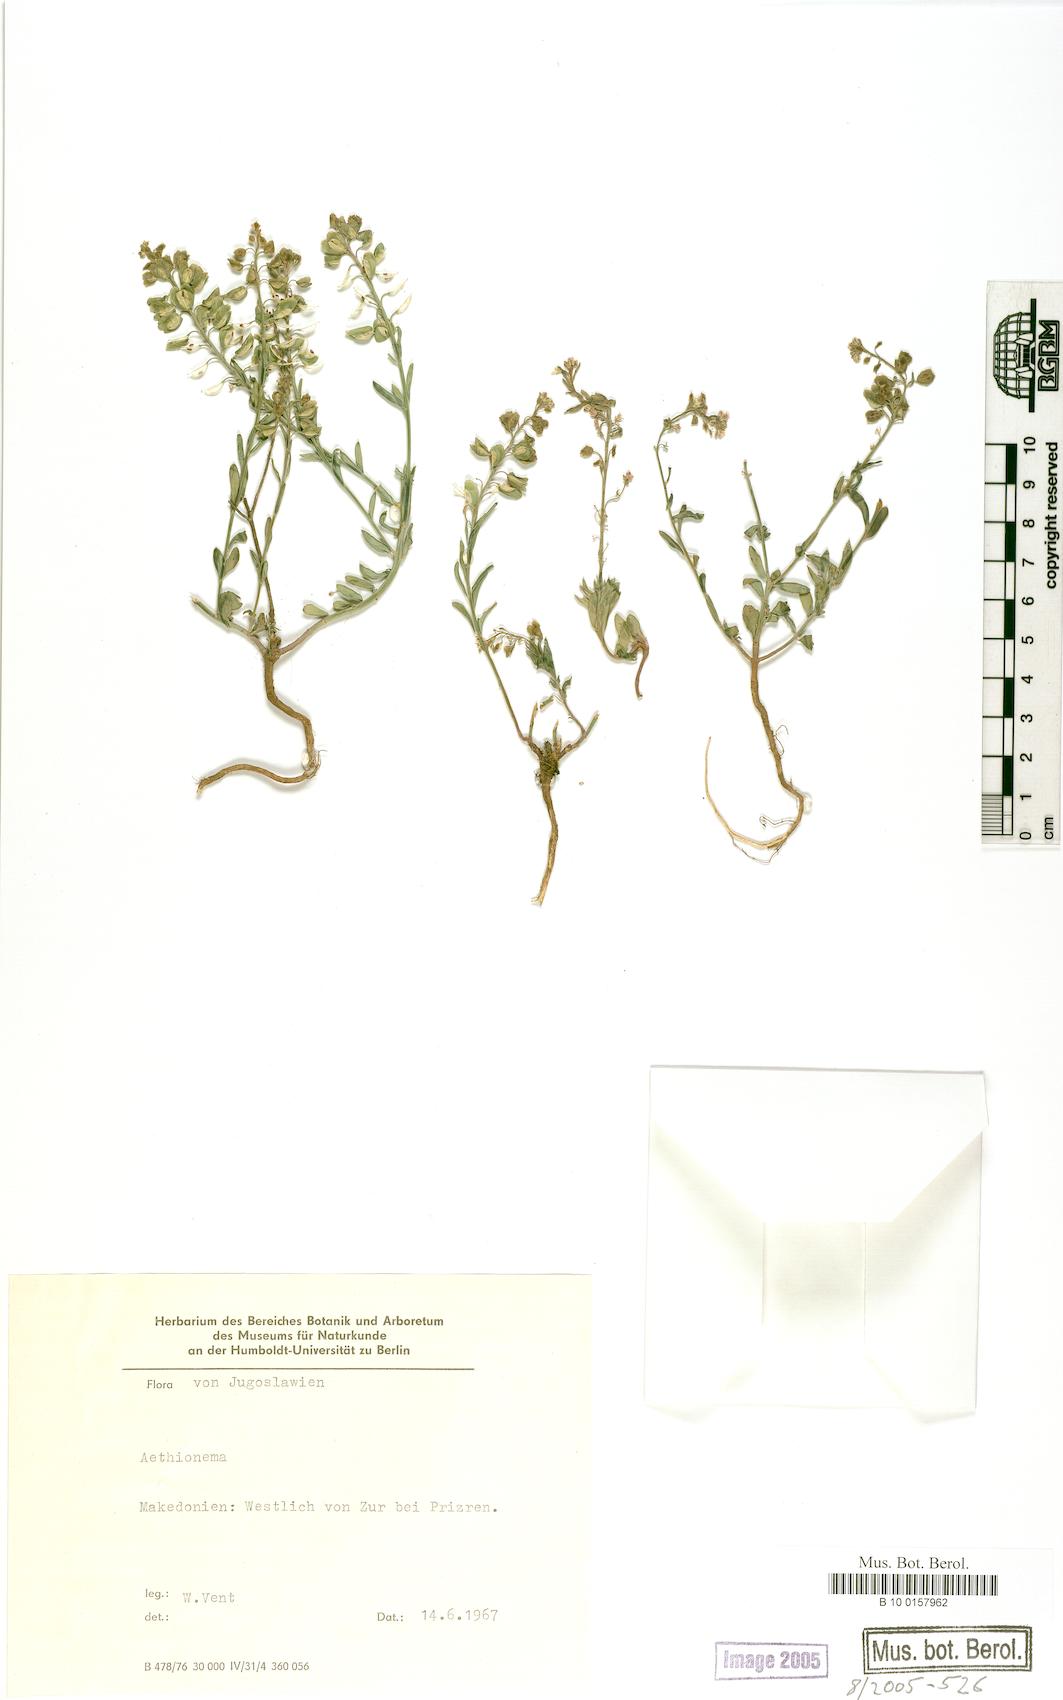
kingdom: Plantae
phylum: Tracheophyta
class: Magnoliopsida
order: Brassicales
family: Brassicaceae
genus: Aethionema
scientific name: Aethionema
